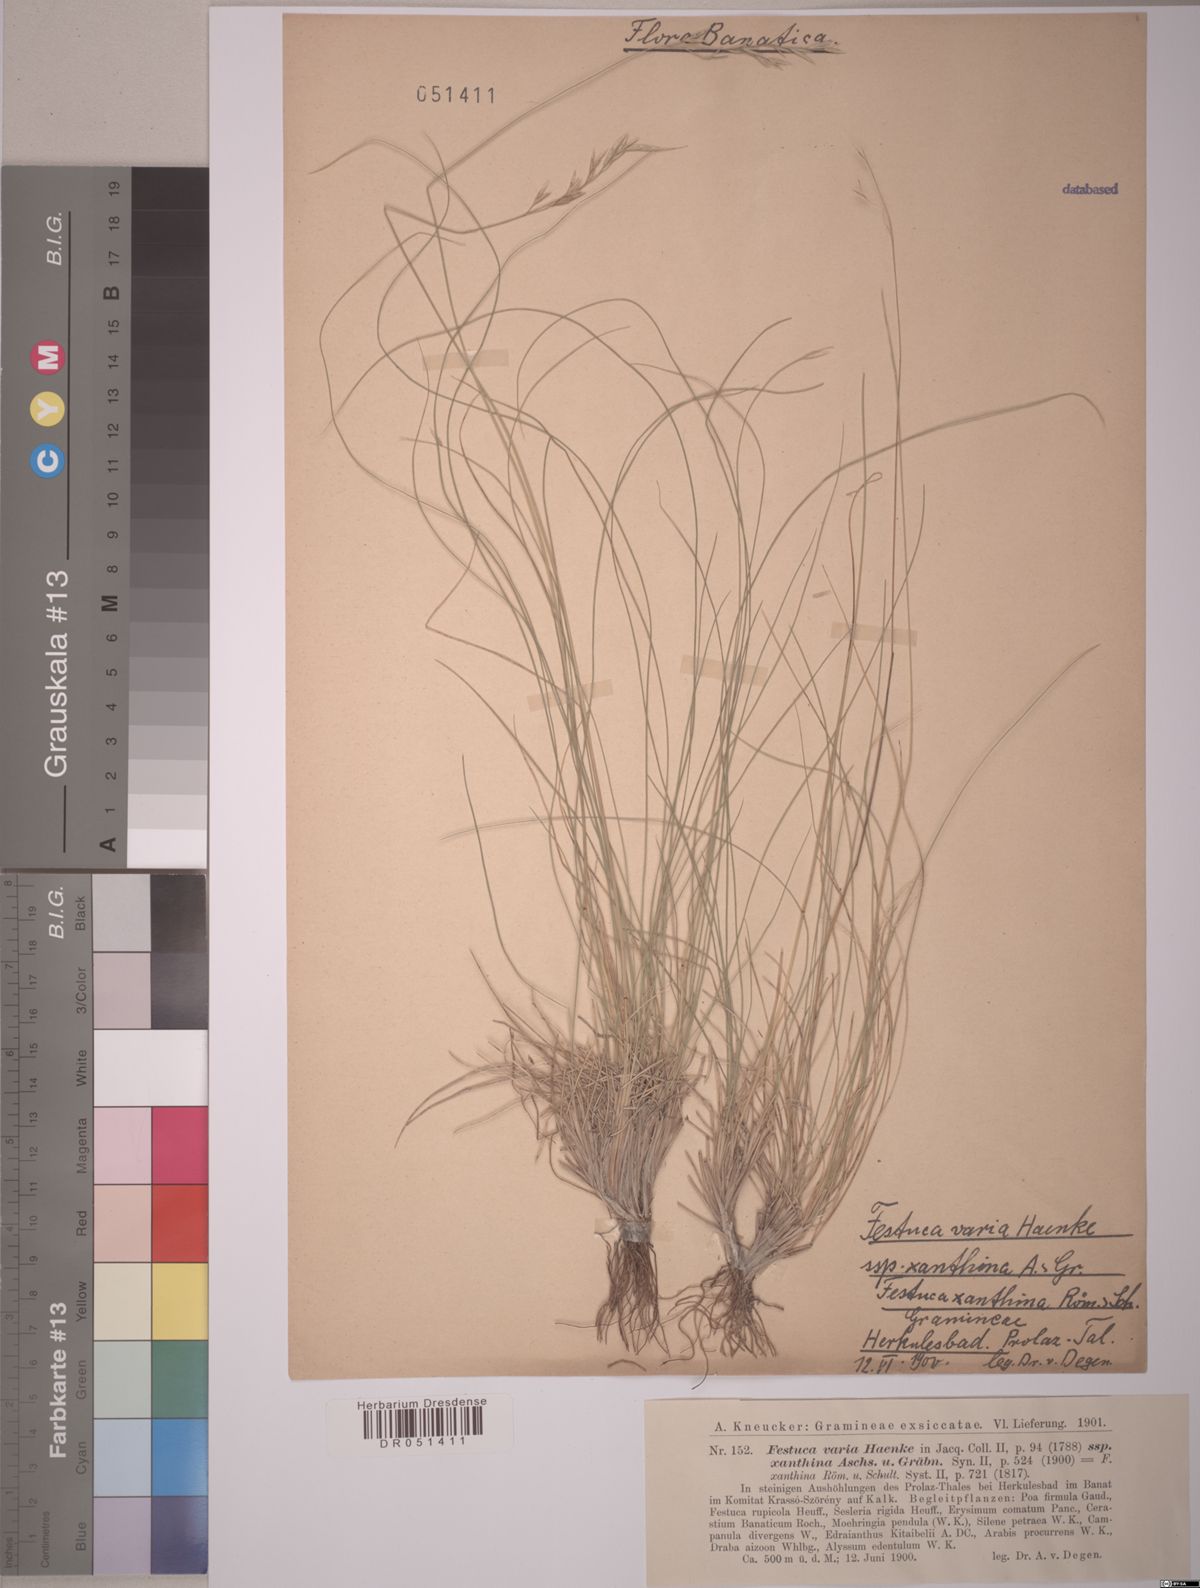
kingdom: Plantae
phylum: Tracheophyta
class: Liliopsida
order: Poales
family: Poaceae
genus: Festuca
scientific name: Festuca xanthina
